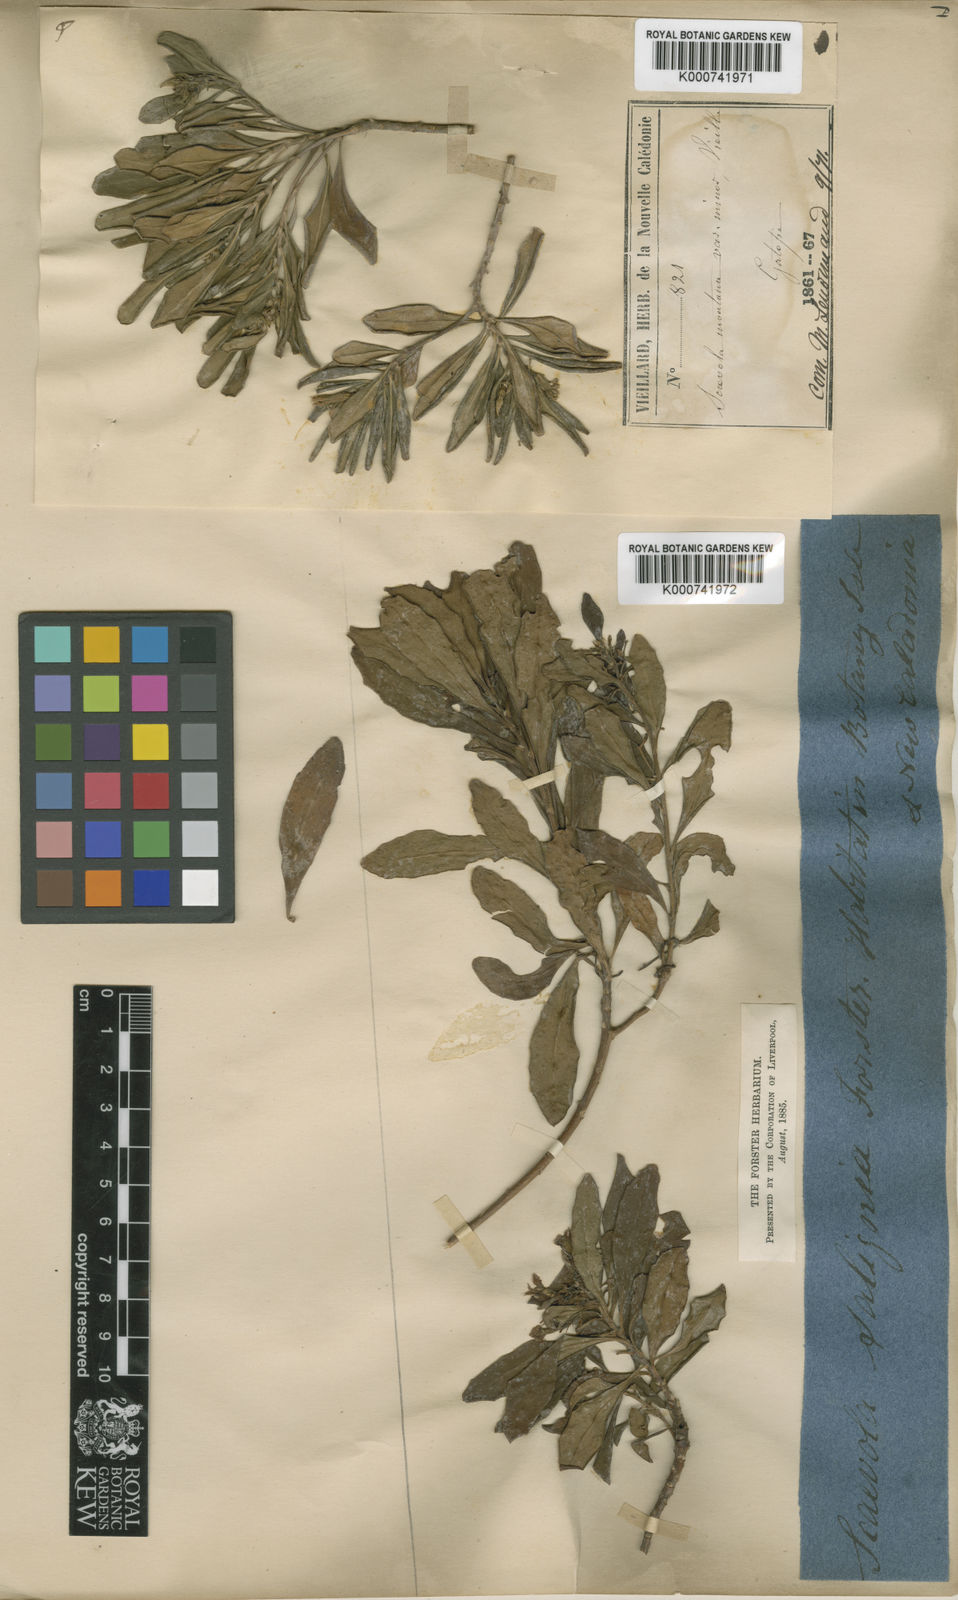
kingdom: Plantae
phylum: Tracheophyta
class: Magnoliopsida
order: Asterales
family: Goodeniaceae
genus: Scaevola
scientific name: Scaevola montana
